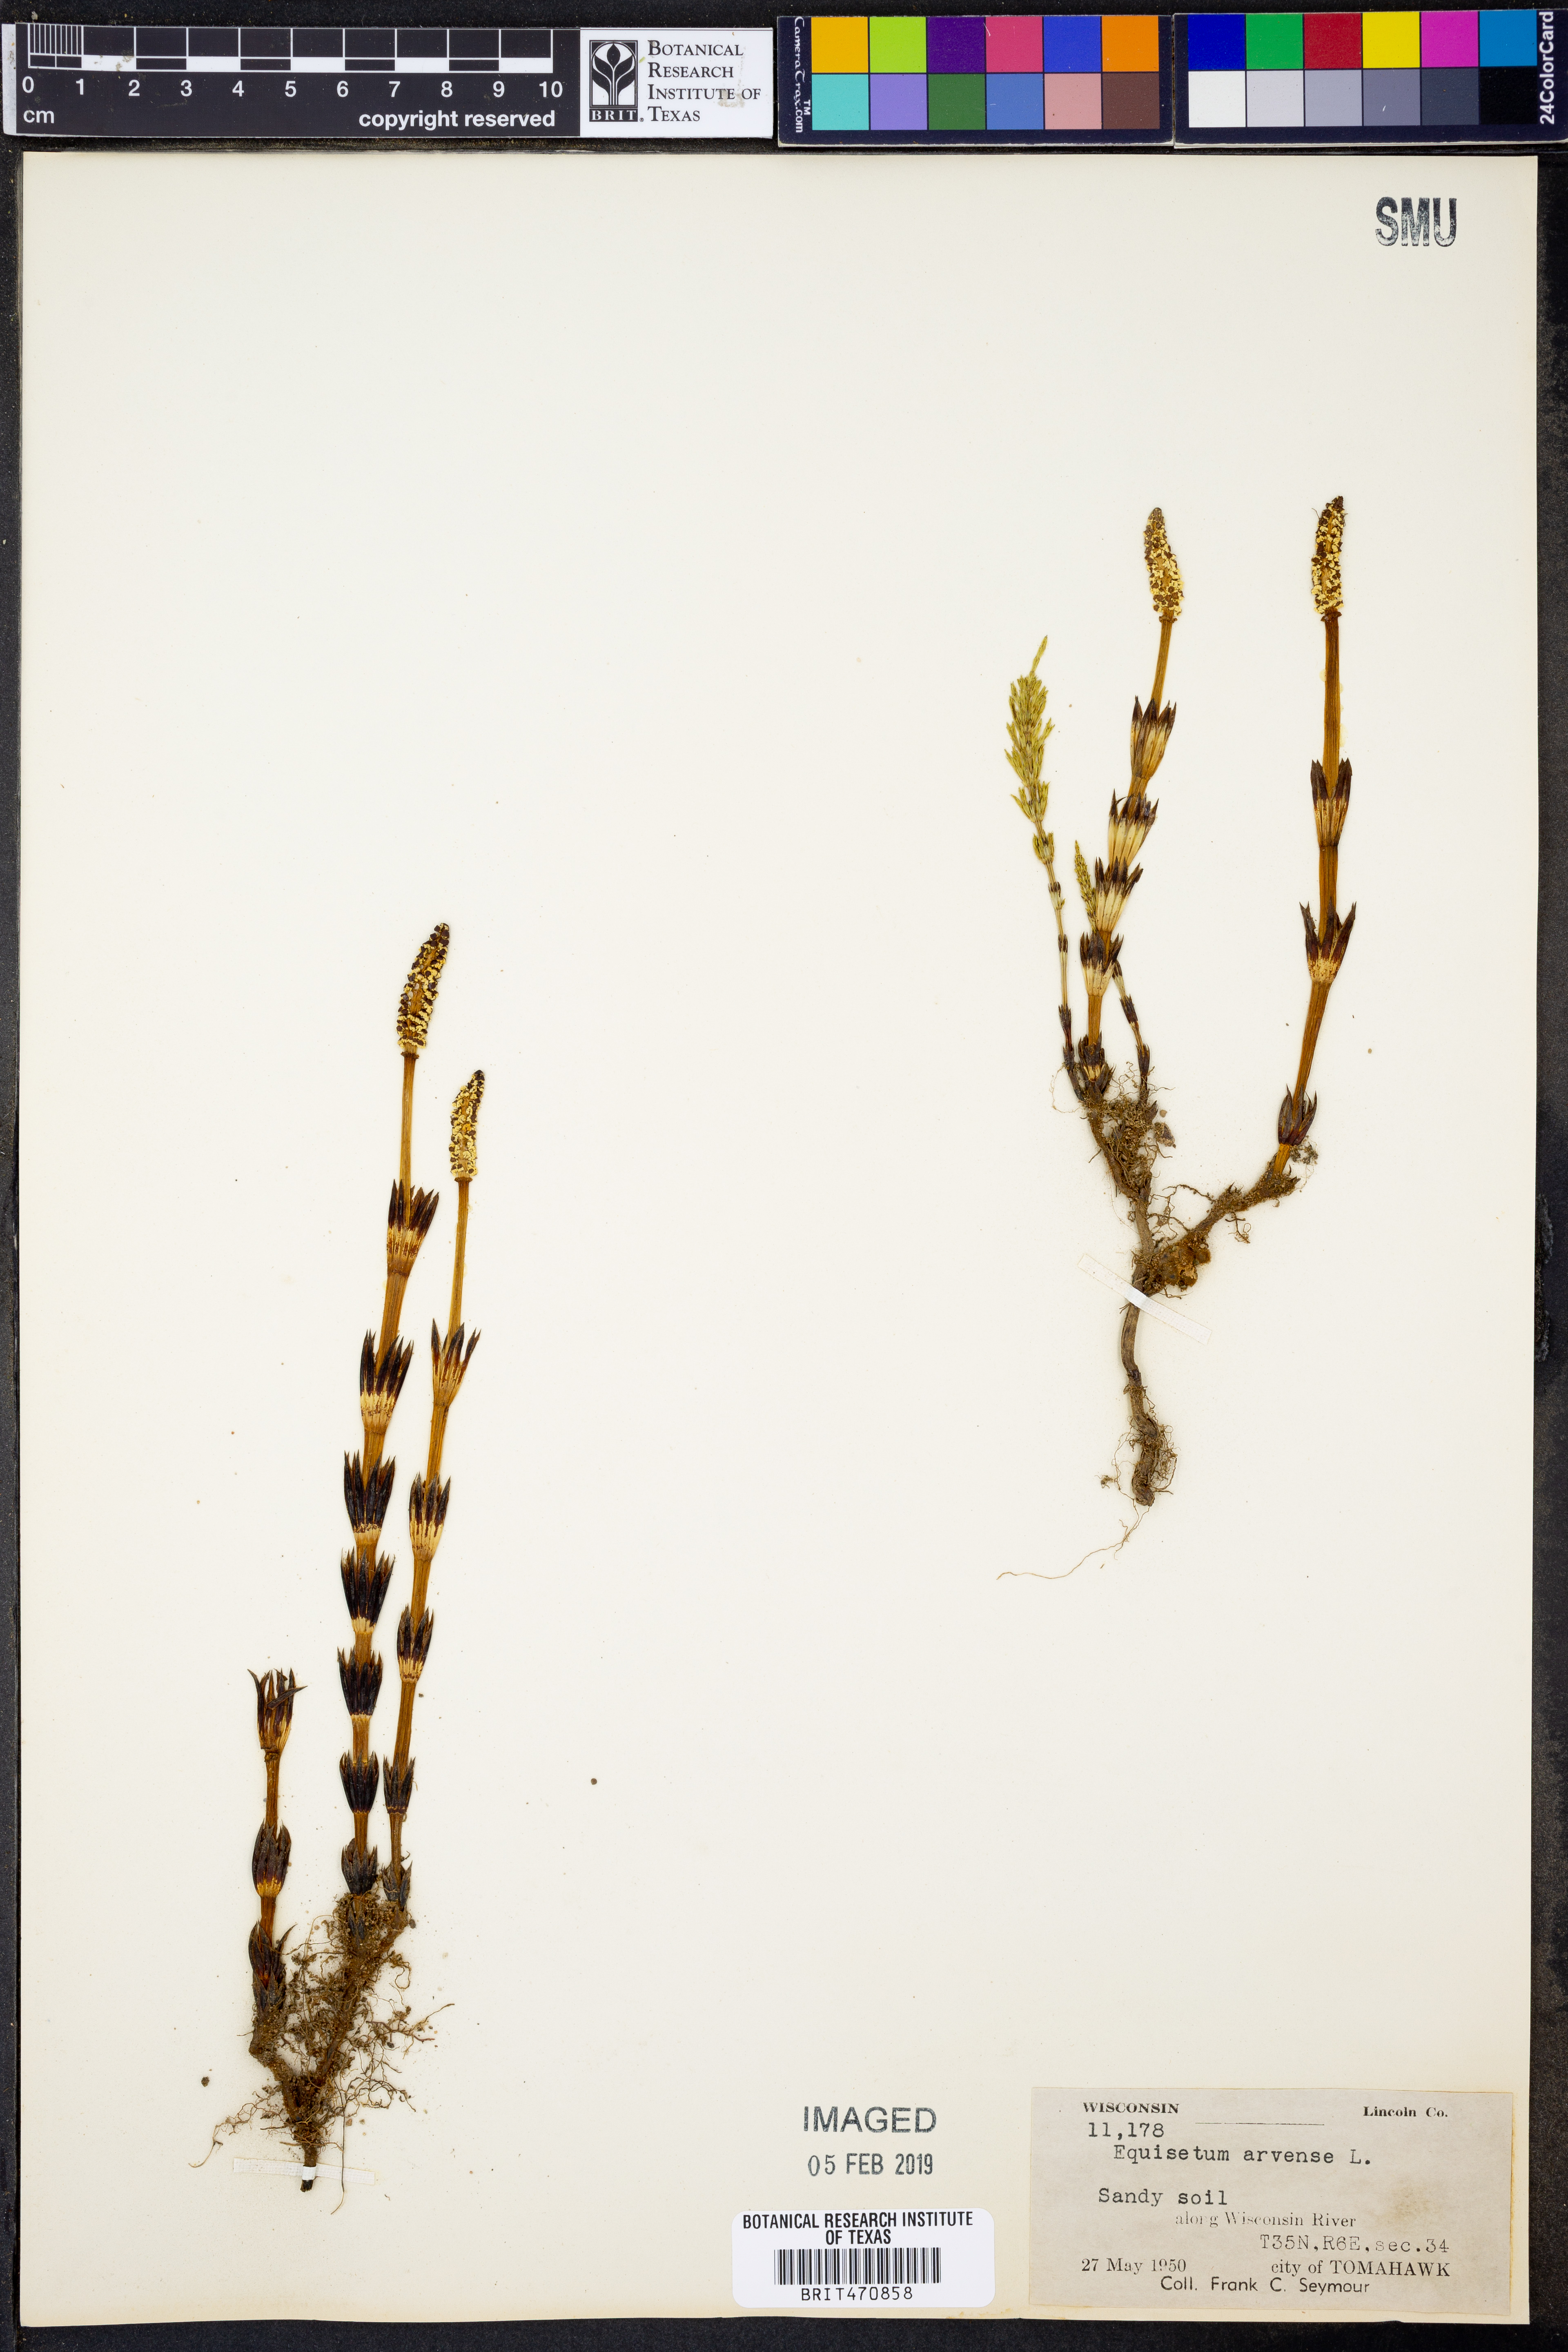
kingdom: Plantae
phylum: Tracheophyta
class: Polypodiopsida
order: Equisetales
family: Equisetaceae
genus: Equisetum
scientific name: Equisetum arvense
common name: Field horsetail
